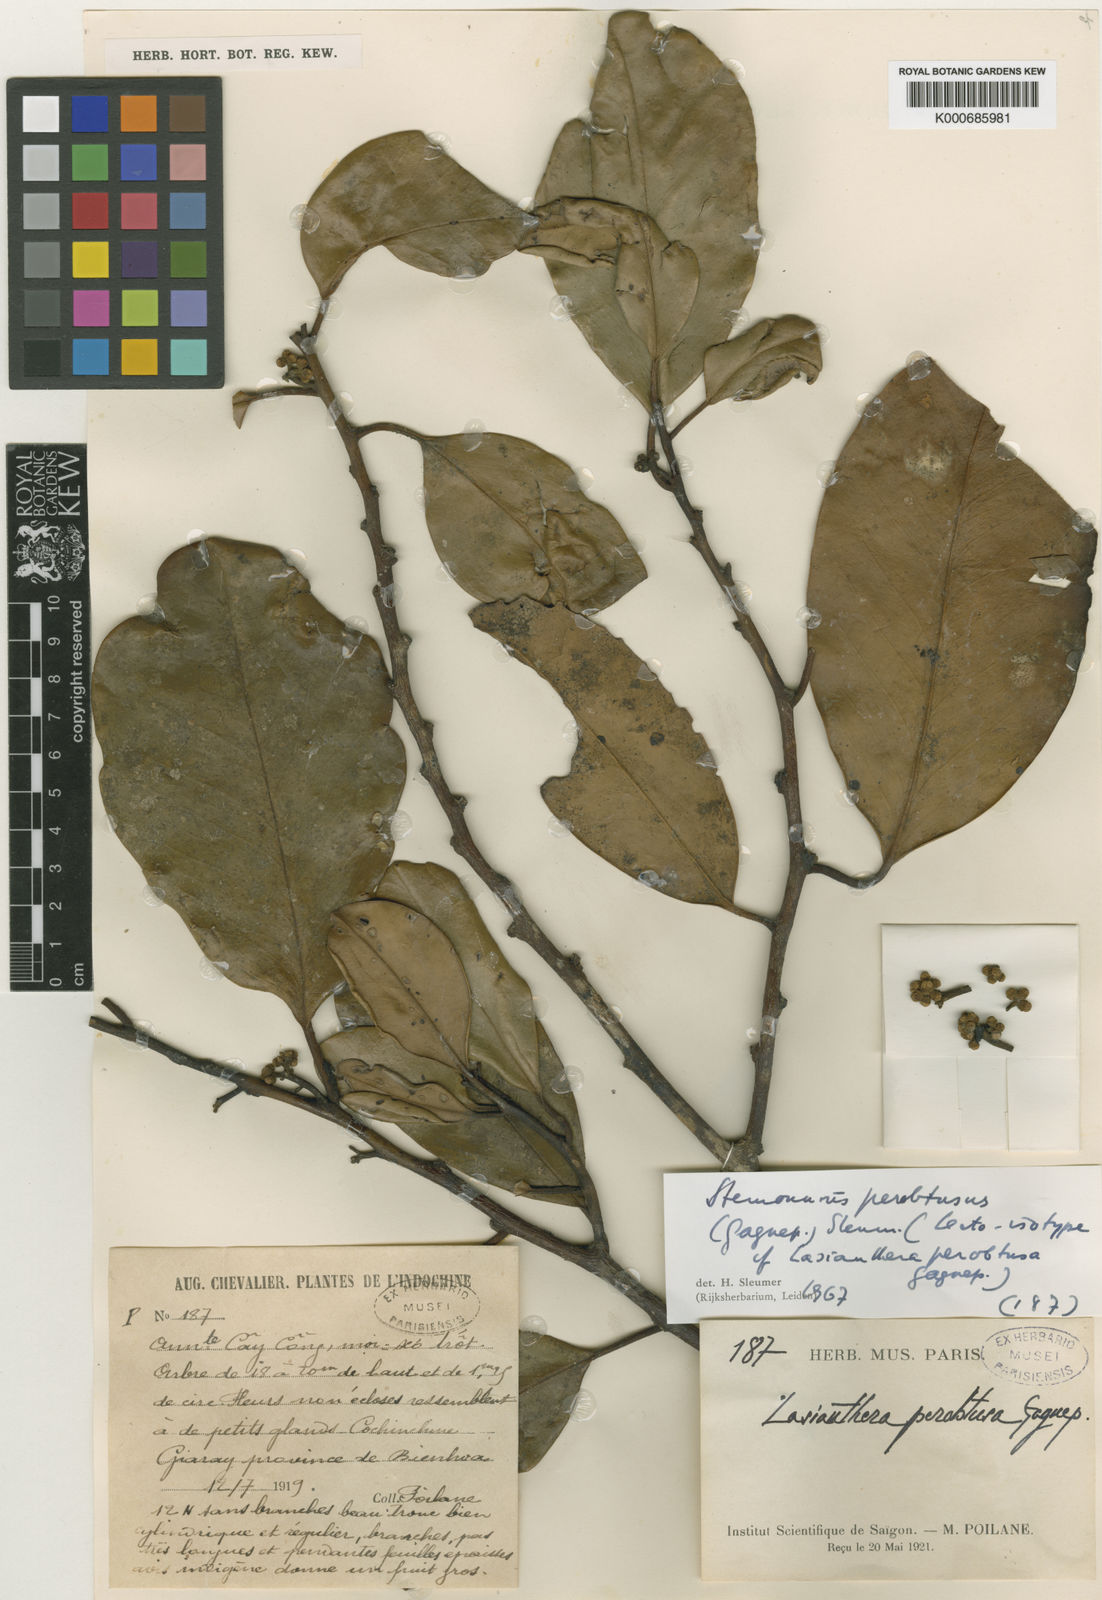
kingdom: Plantae
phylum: Tracheophyta
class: Magnoliopsida
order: Cardiopteridales
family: Stemonuraceae
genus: Stemonurus
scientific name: Stemonurus perobtusus
